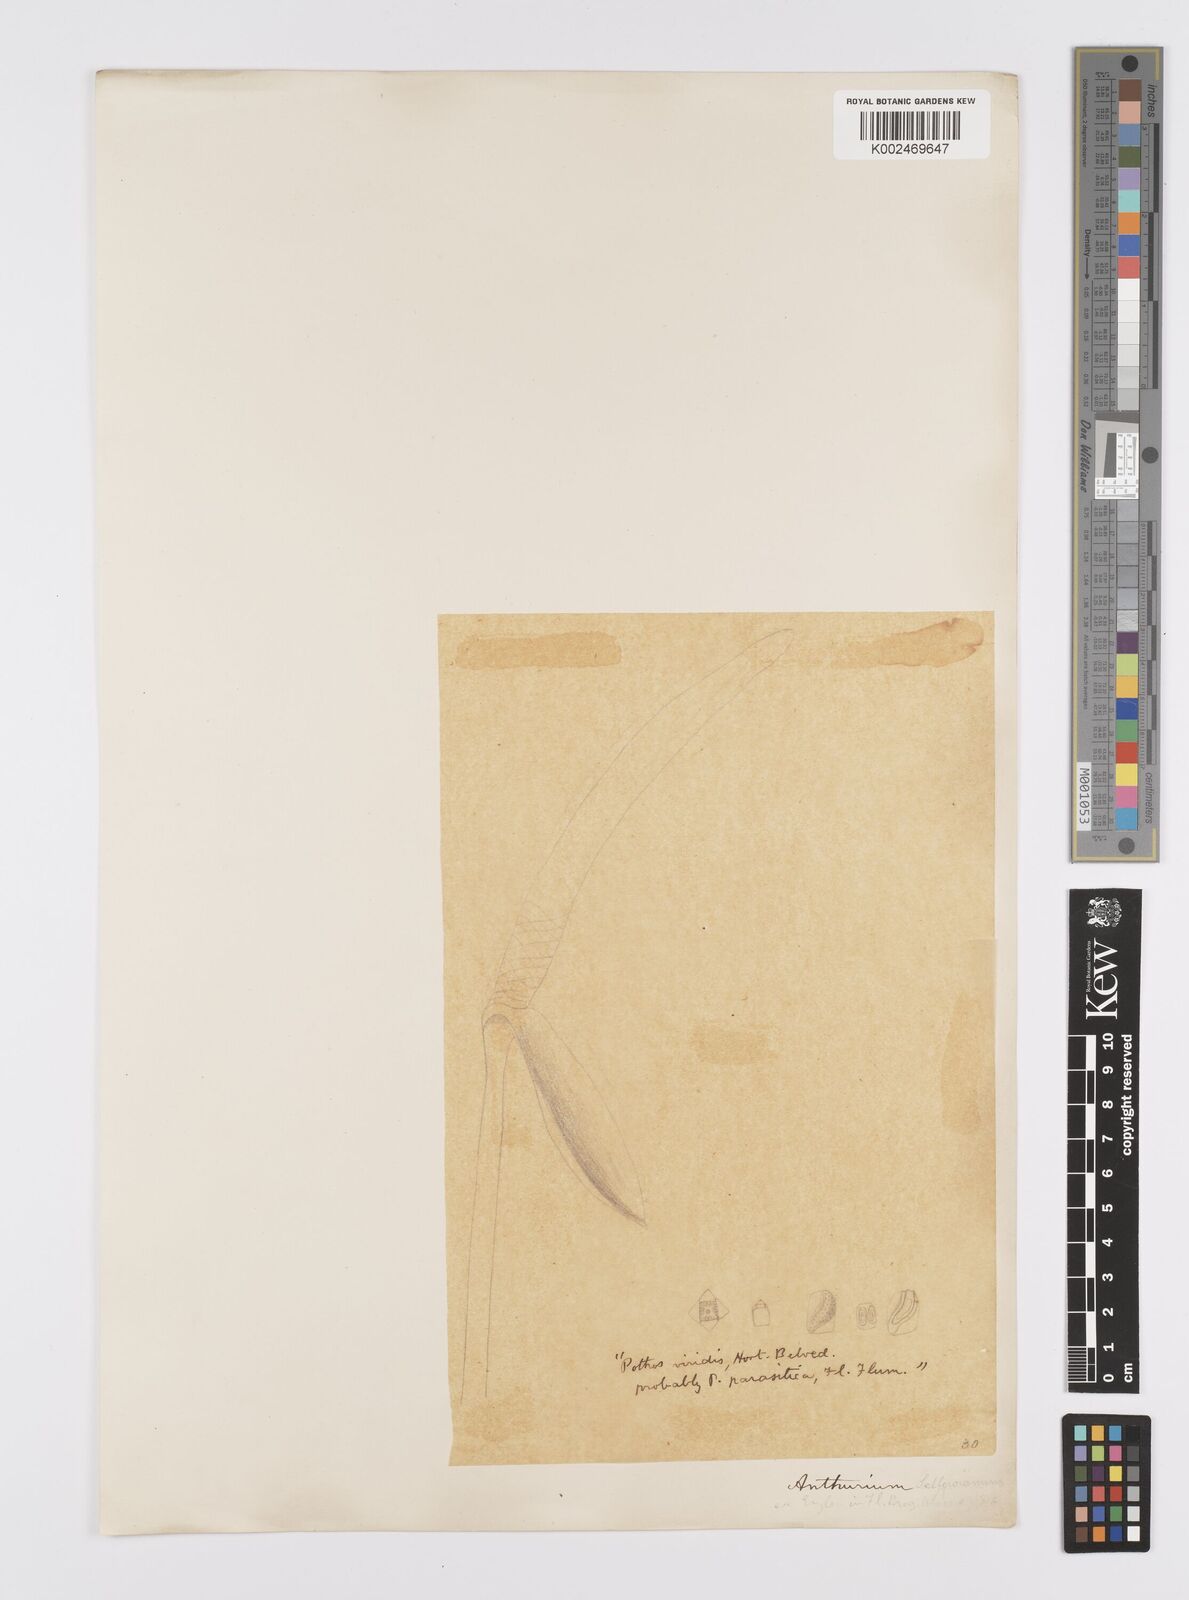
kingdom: Plantae
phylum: Tracheophyta
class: Liliopsida
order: Alismatales
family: Araceae
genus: Anthurium
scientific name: Anthurium sellowianum
